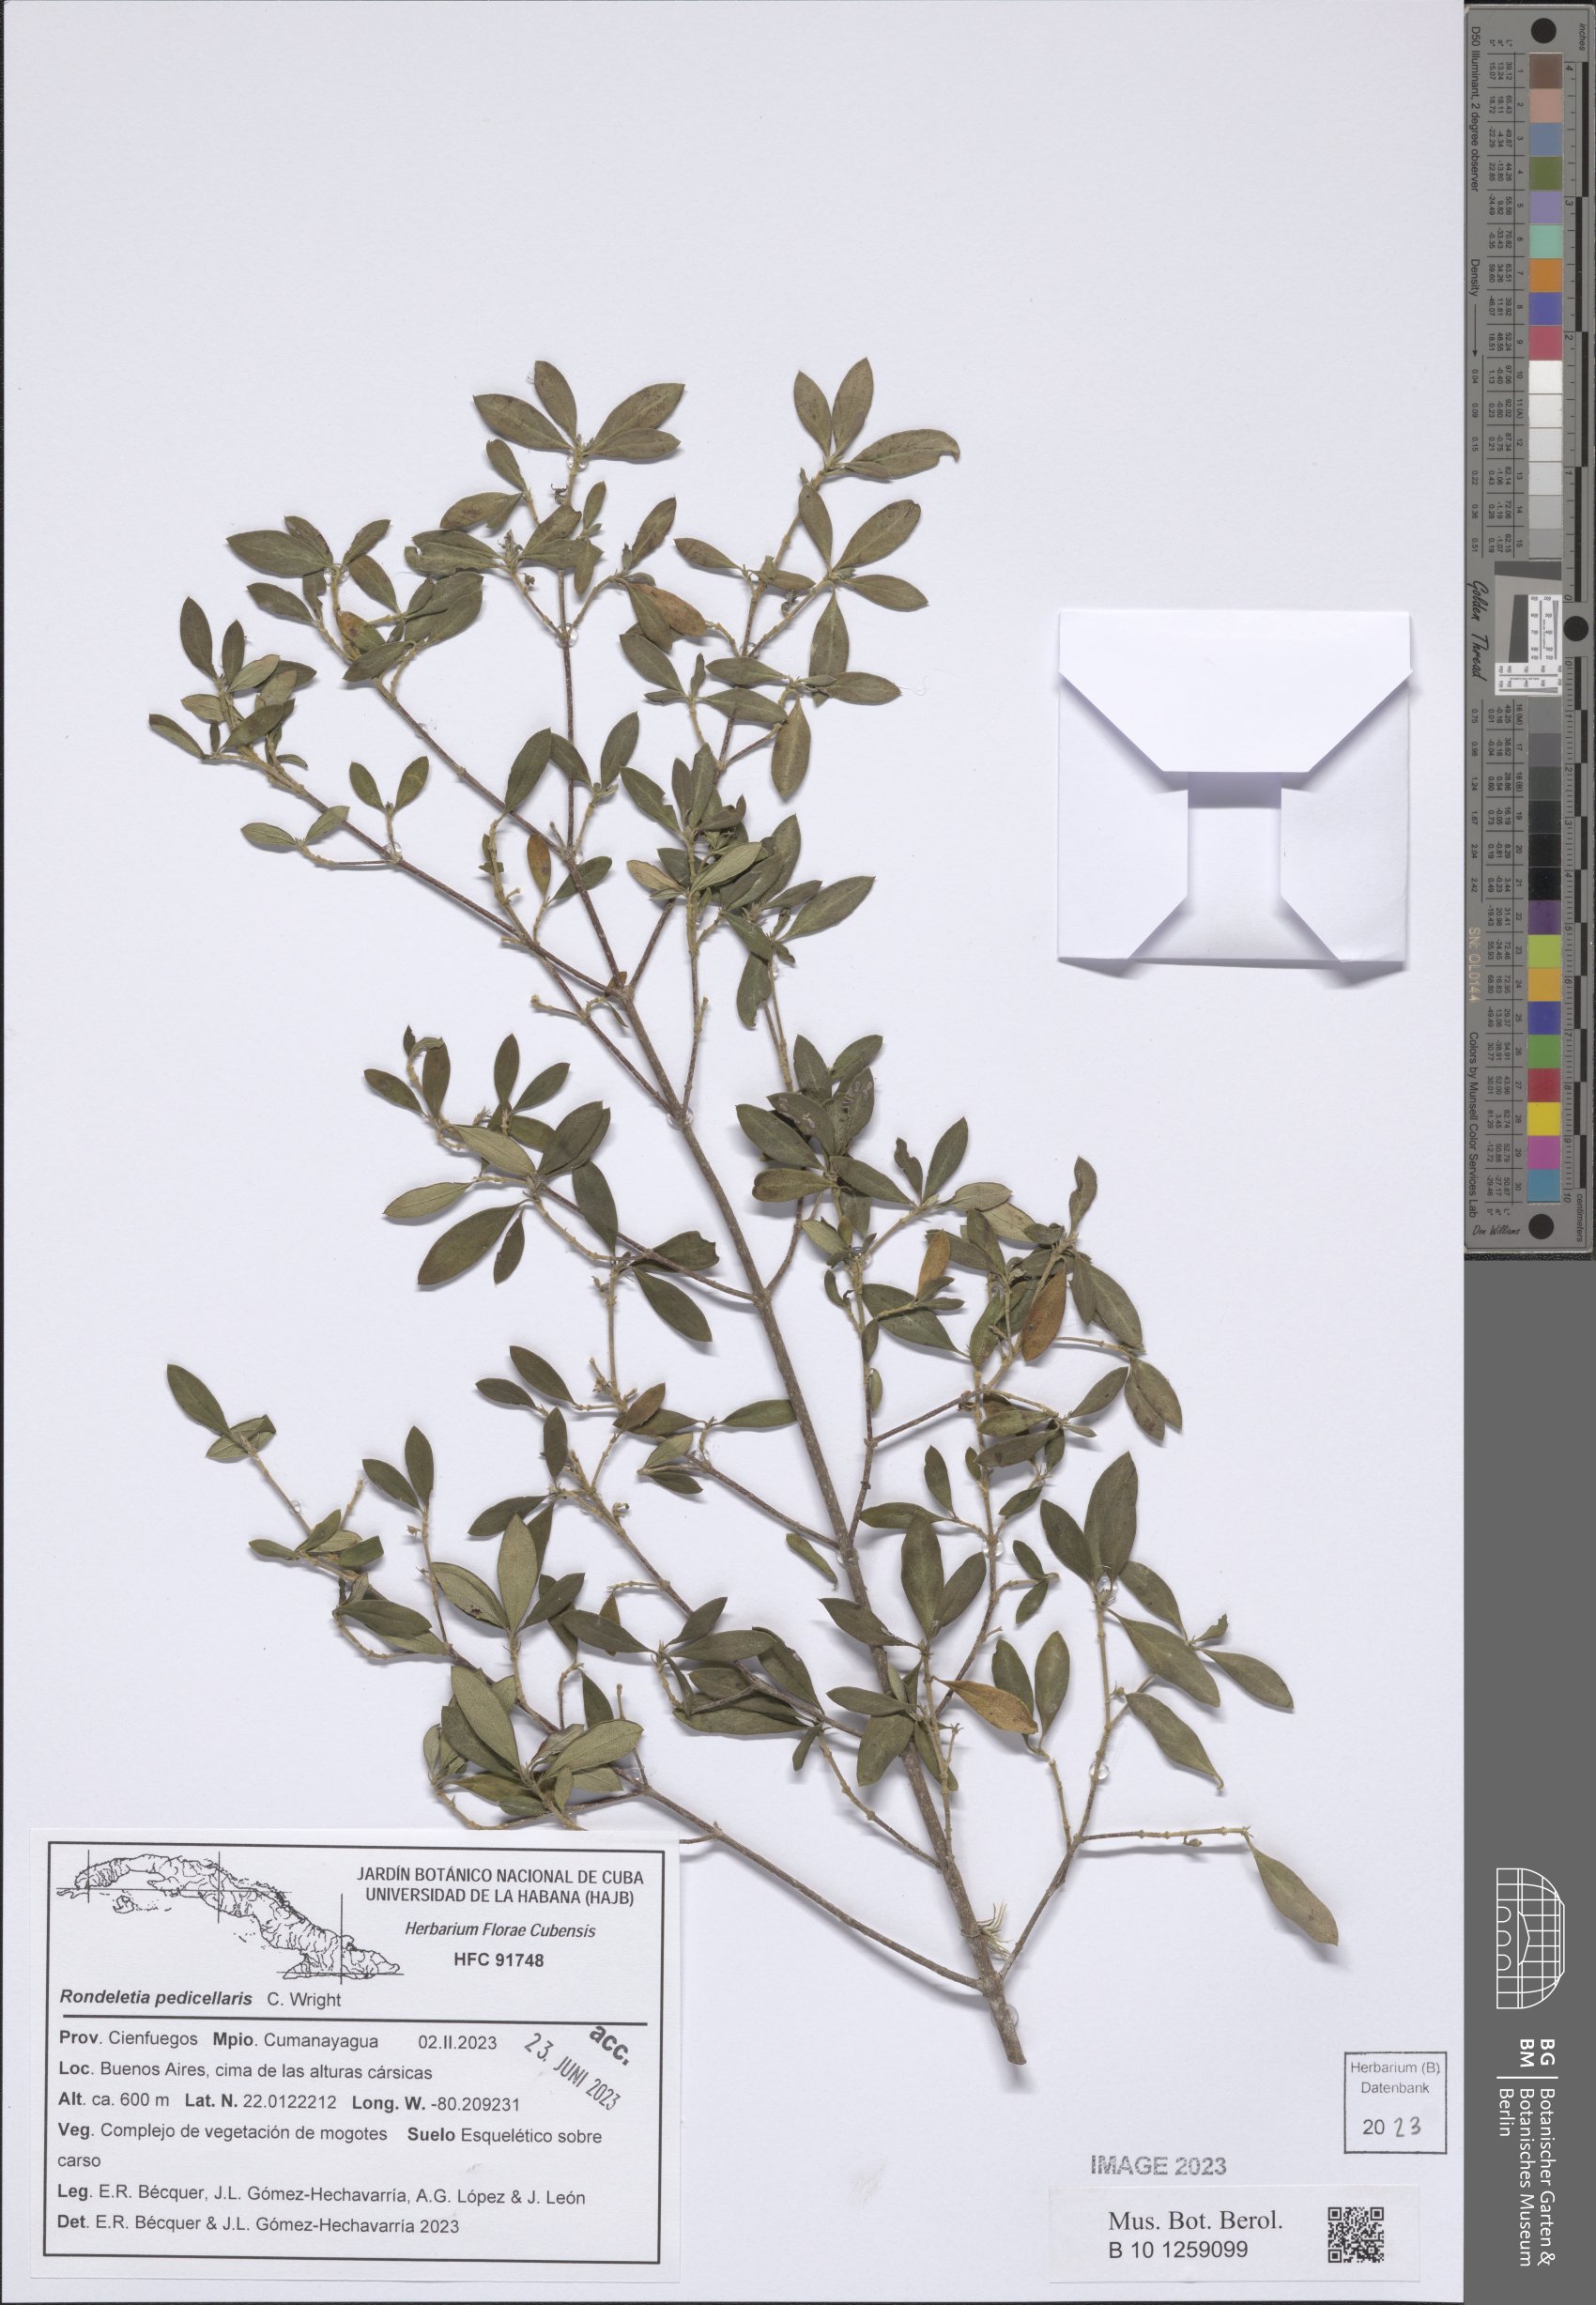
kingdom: Plantae
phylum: Tracheophyta
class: Magnoliopsida
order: Gentianales
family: Rubiaceae
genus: Rondeletia
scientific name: Rondeletia pedicellaris
